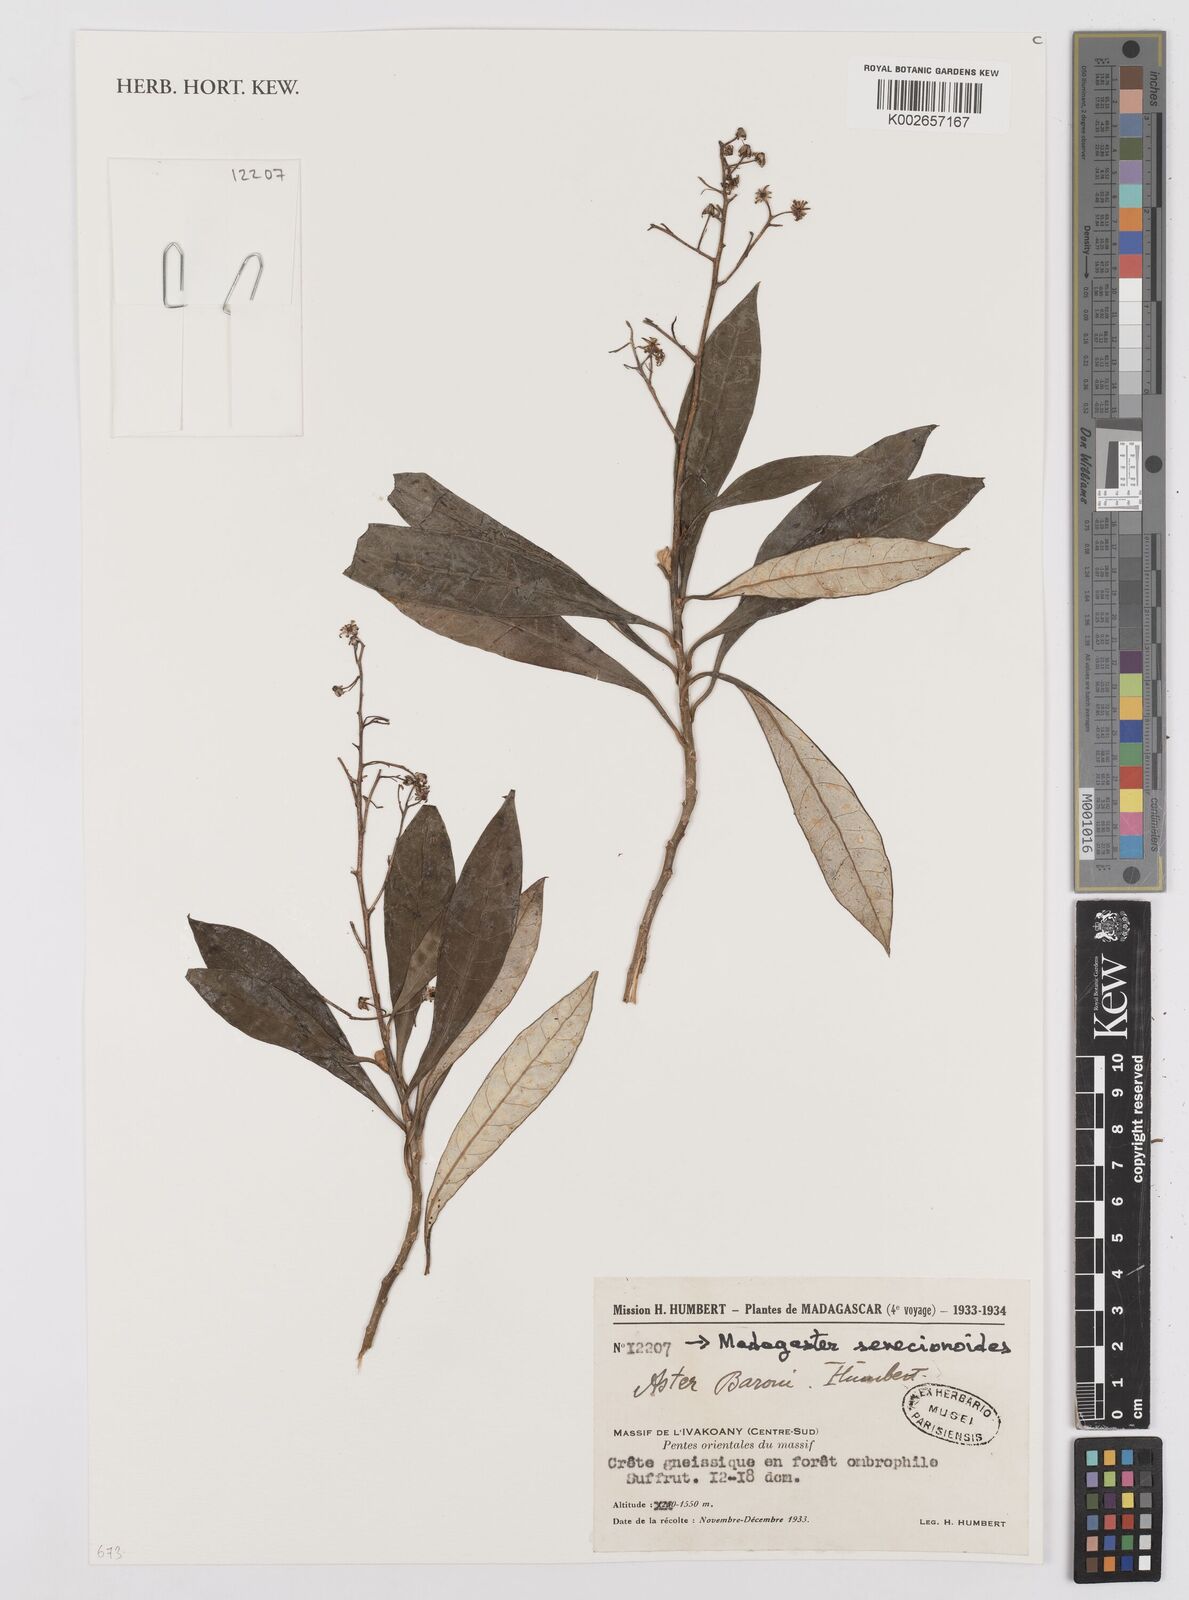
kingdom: Plantae
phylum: Tracheophyta
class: Magnoliopsida
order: Asterales
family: Asteraceae
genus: Madagaster
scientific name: Madagaster senecionoides
